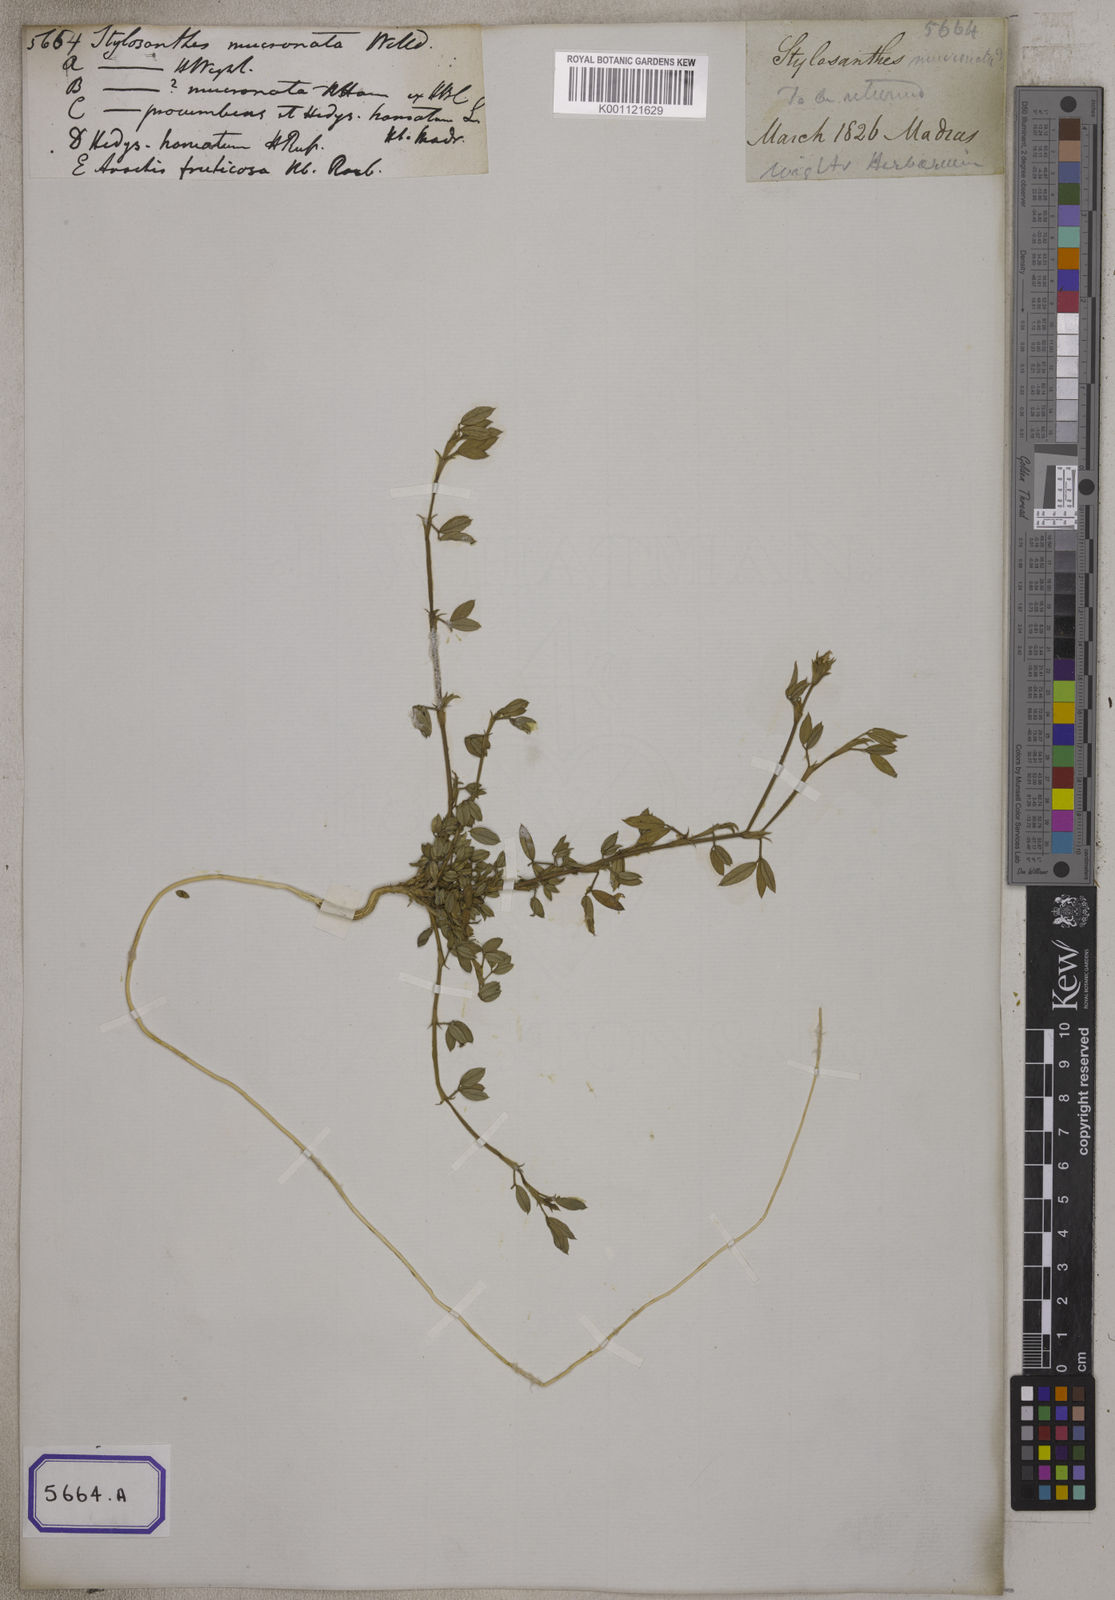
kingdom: Plantae
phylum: Tracheophyta
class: Magnoliopsida
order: Fabales
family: Fabaceae
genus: Stylosanthes
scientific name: Stylosanthes fruticosa
